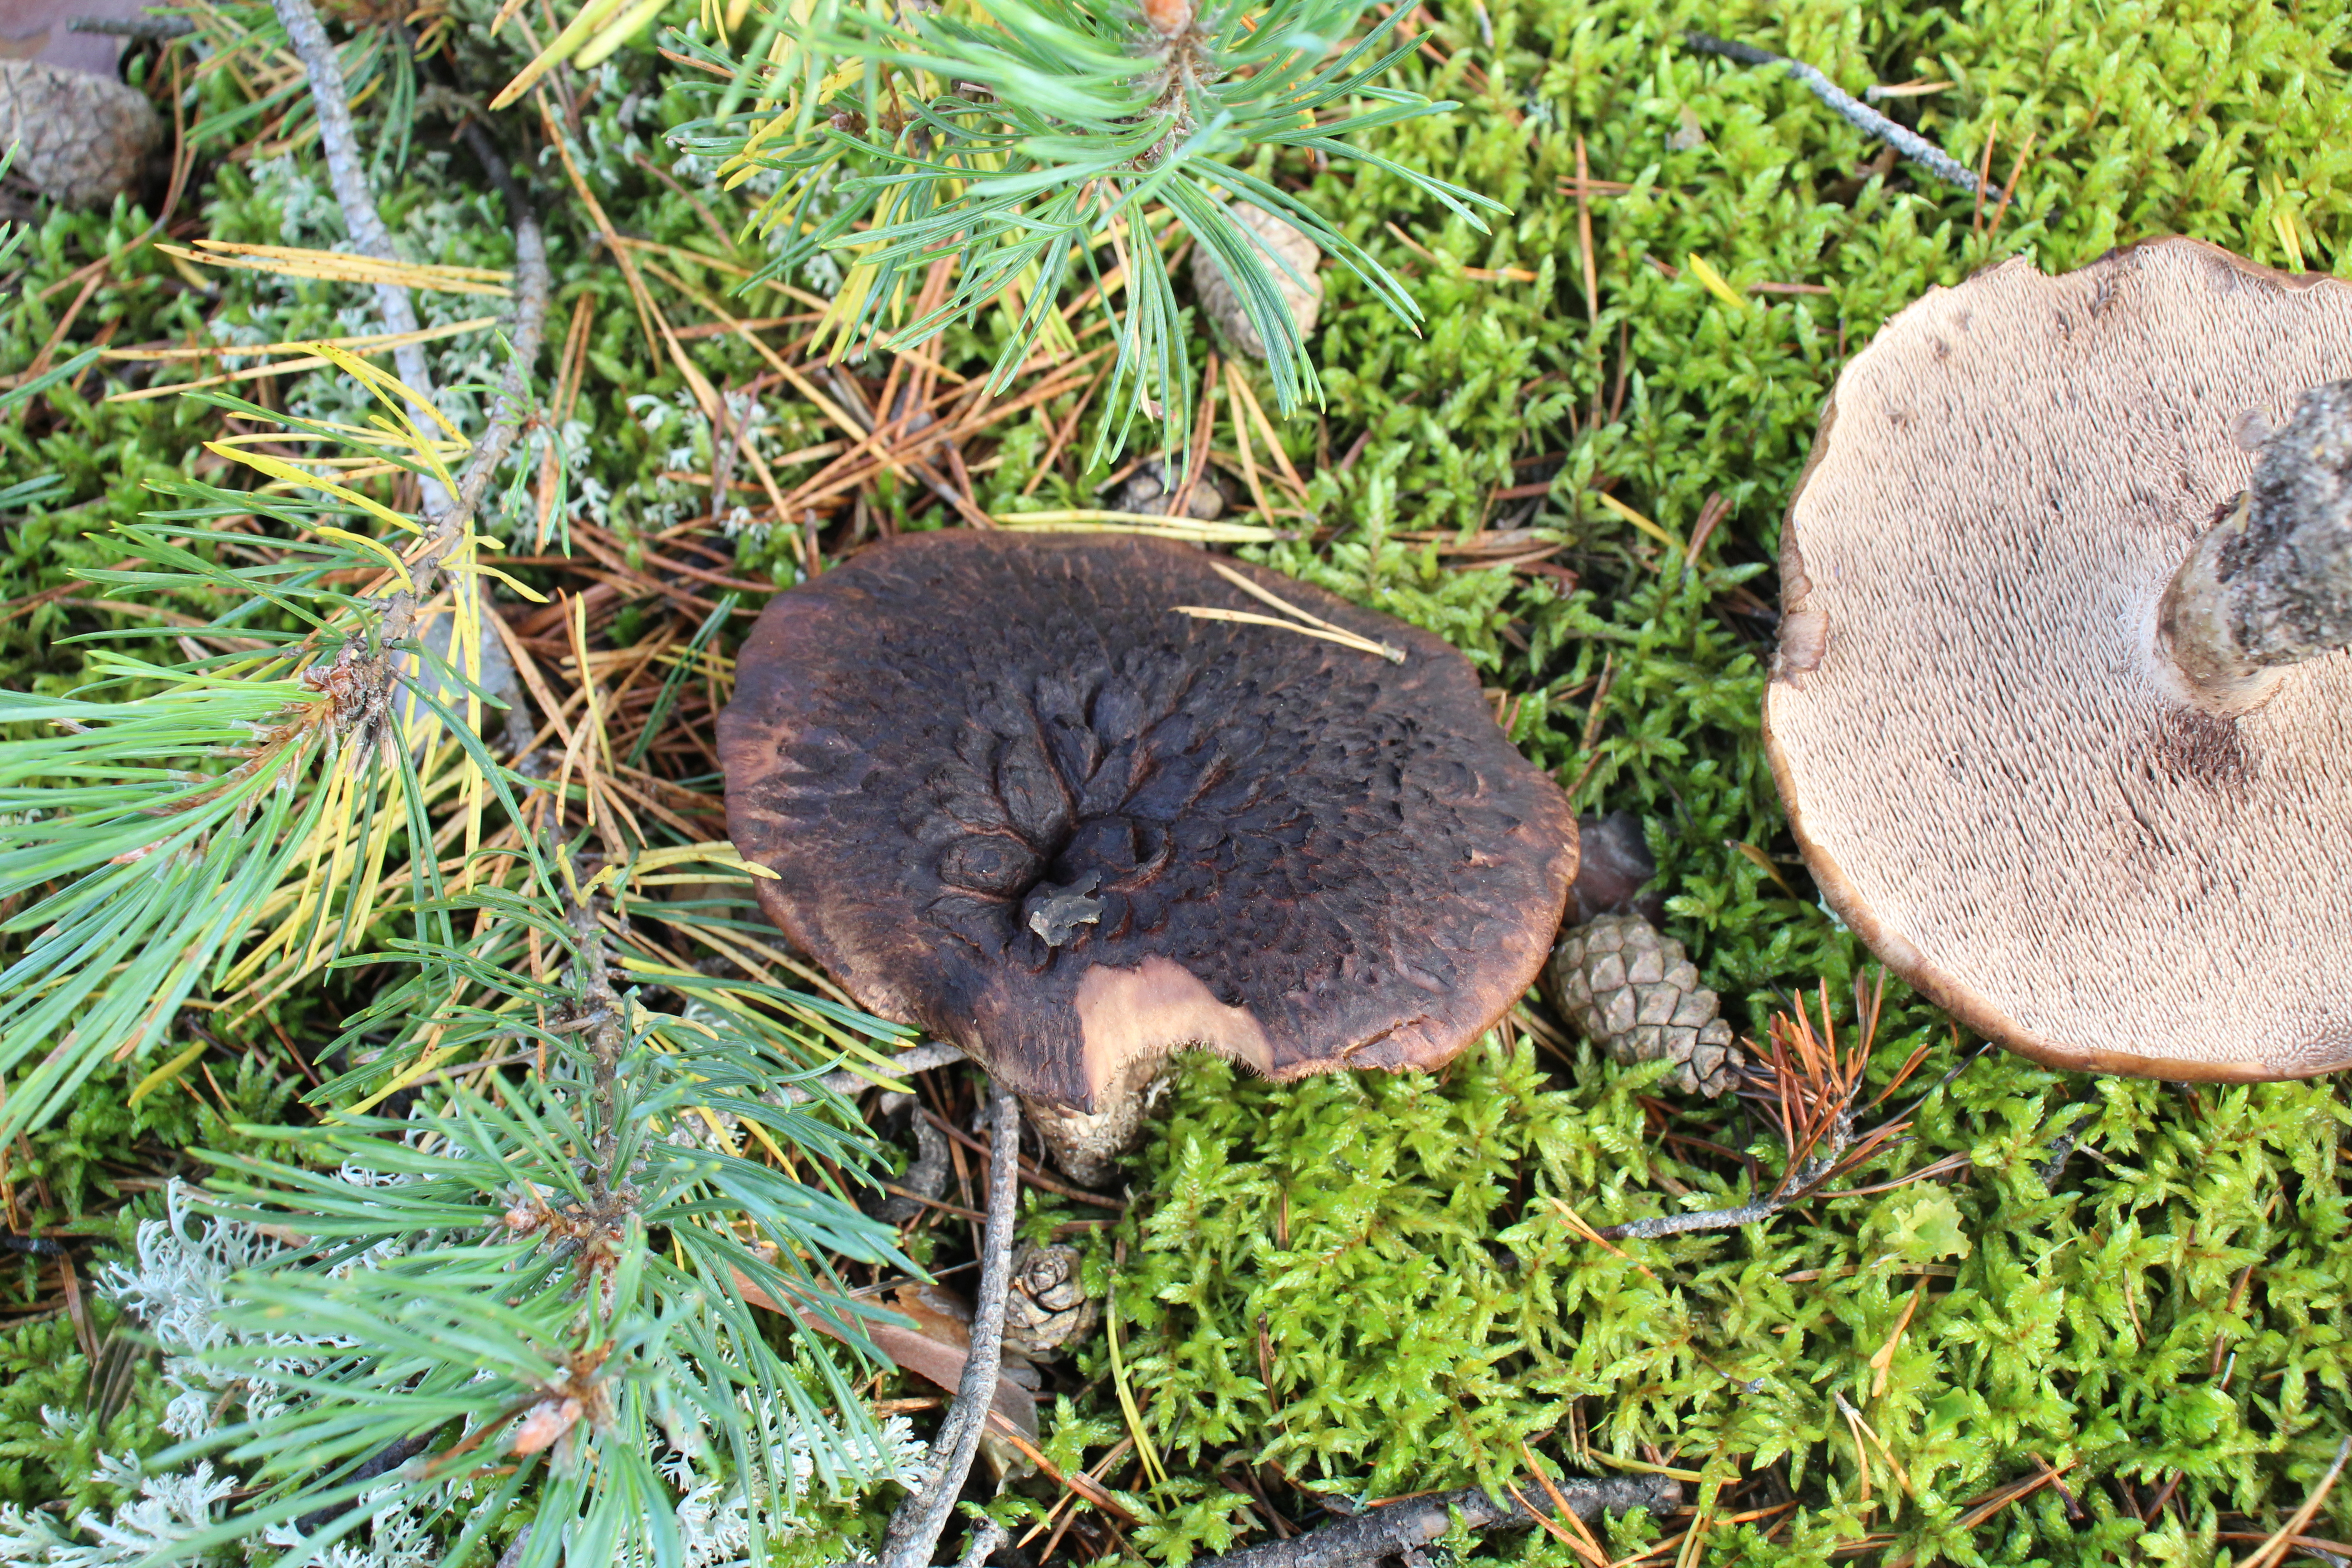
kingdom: Fungi
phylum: Basidiomycota
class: Agaricomycetes
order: Thelephorales
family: Bankeraceae
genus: Sarcodon
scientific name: Sarcodon squamosus
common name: Scaly tooth
